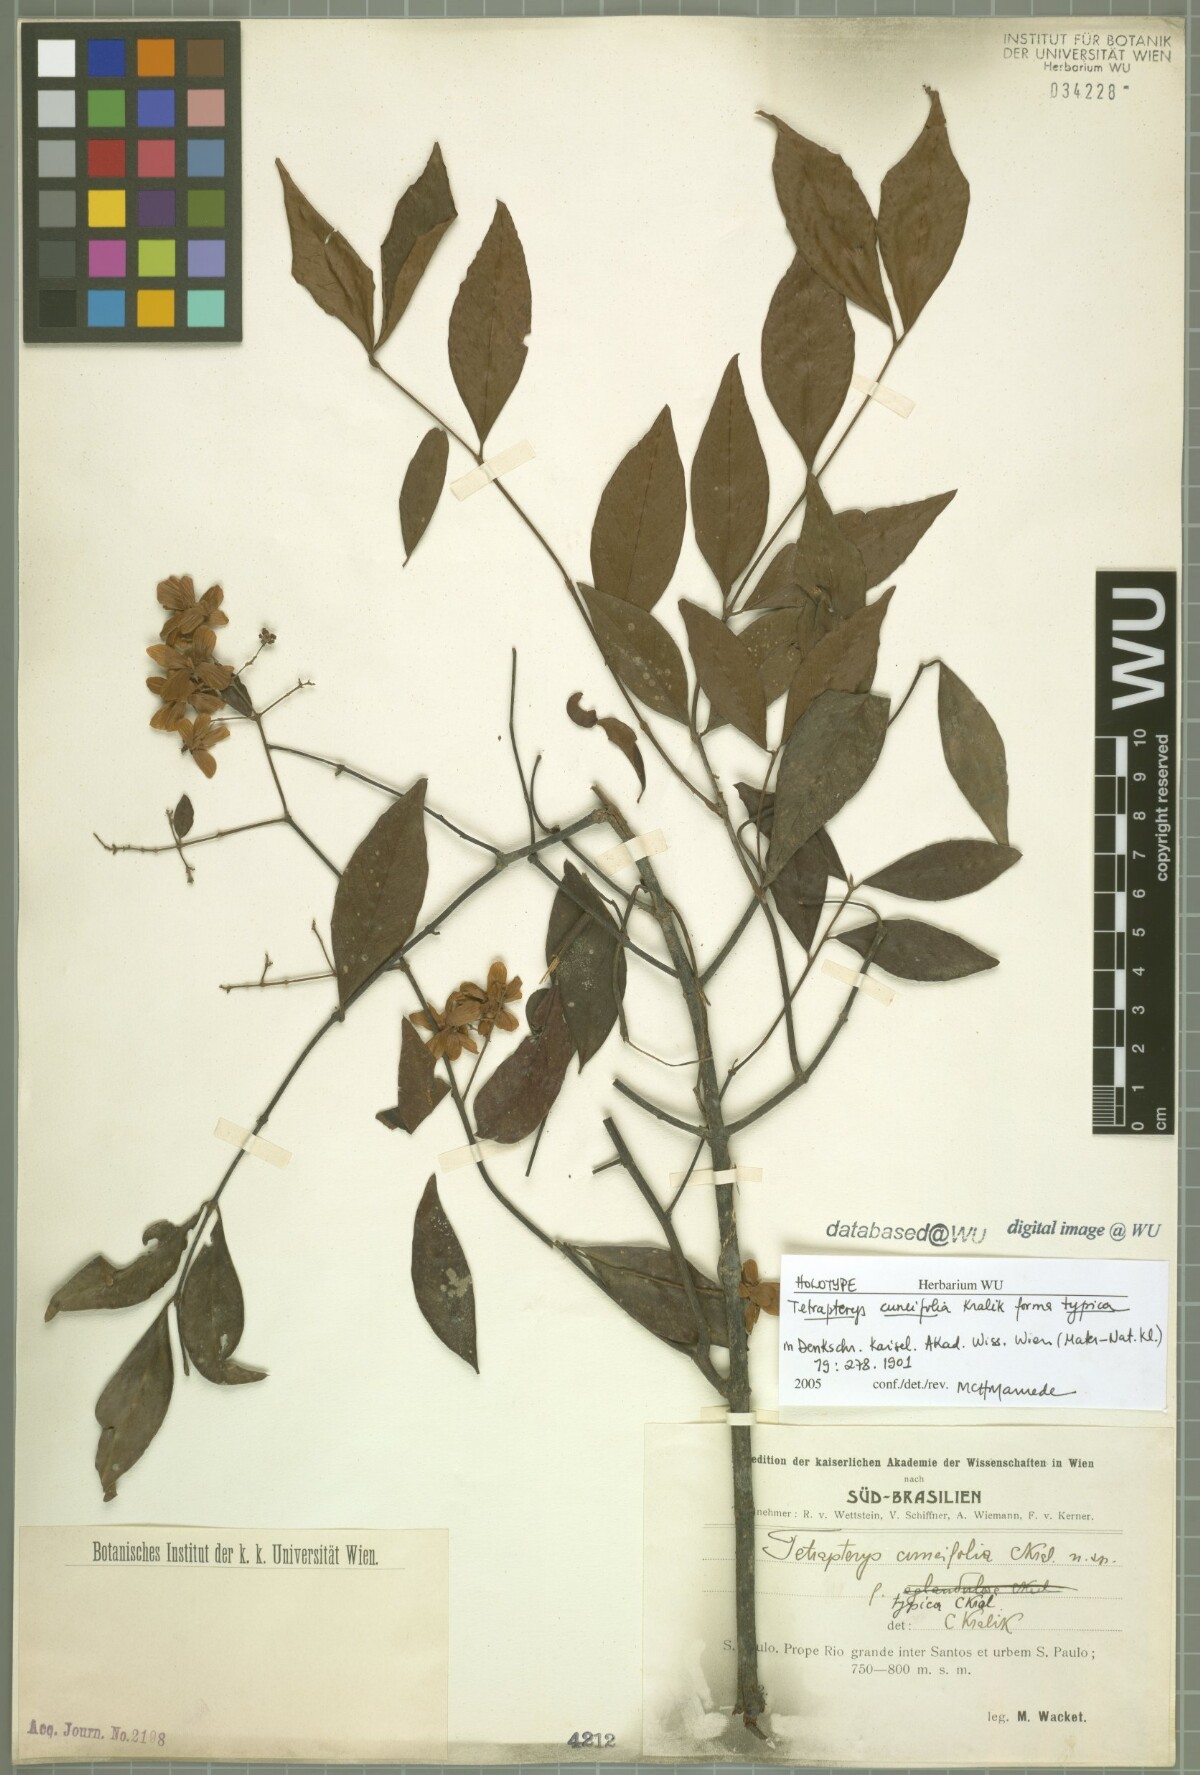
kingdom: Plantae
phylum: Tracheophyta
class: Magnoliopsida
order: Malpighiales
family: Malpighiaceae
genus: Niedenzuella
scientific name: Niedenzuella lucida
